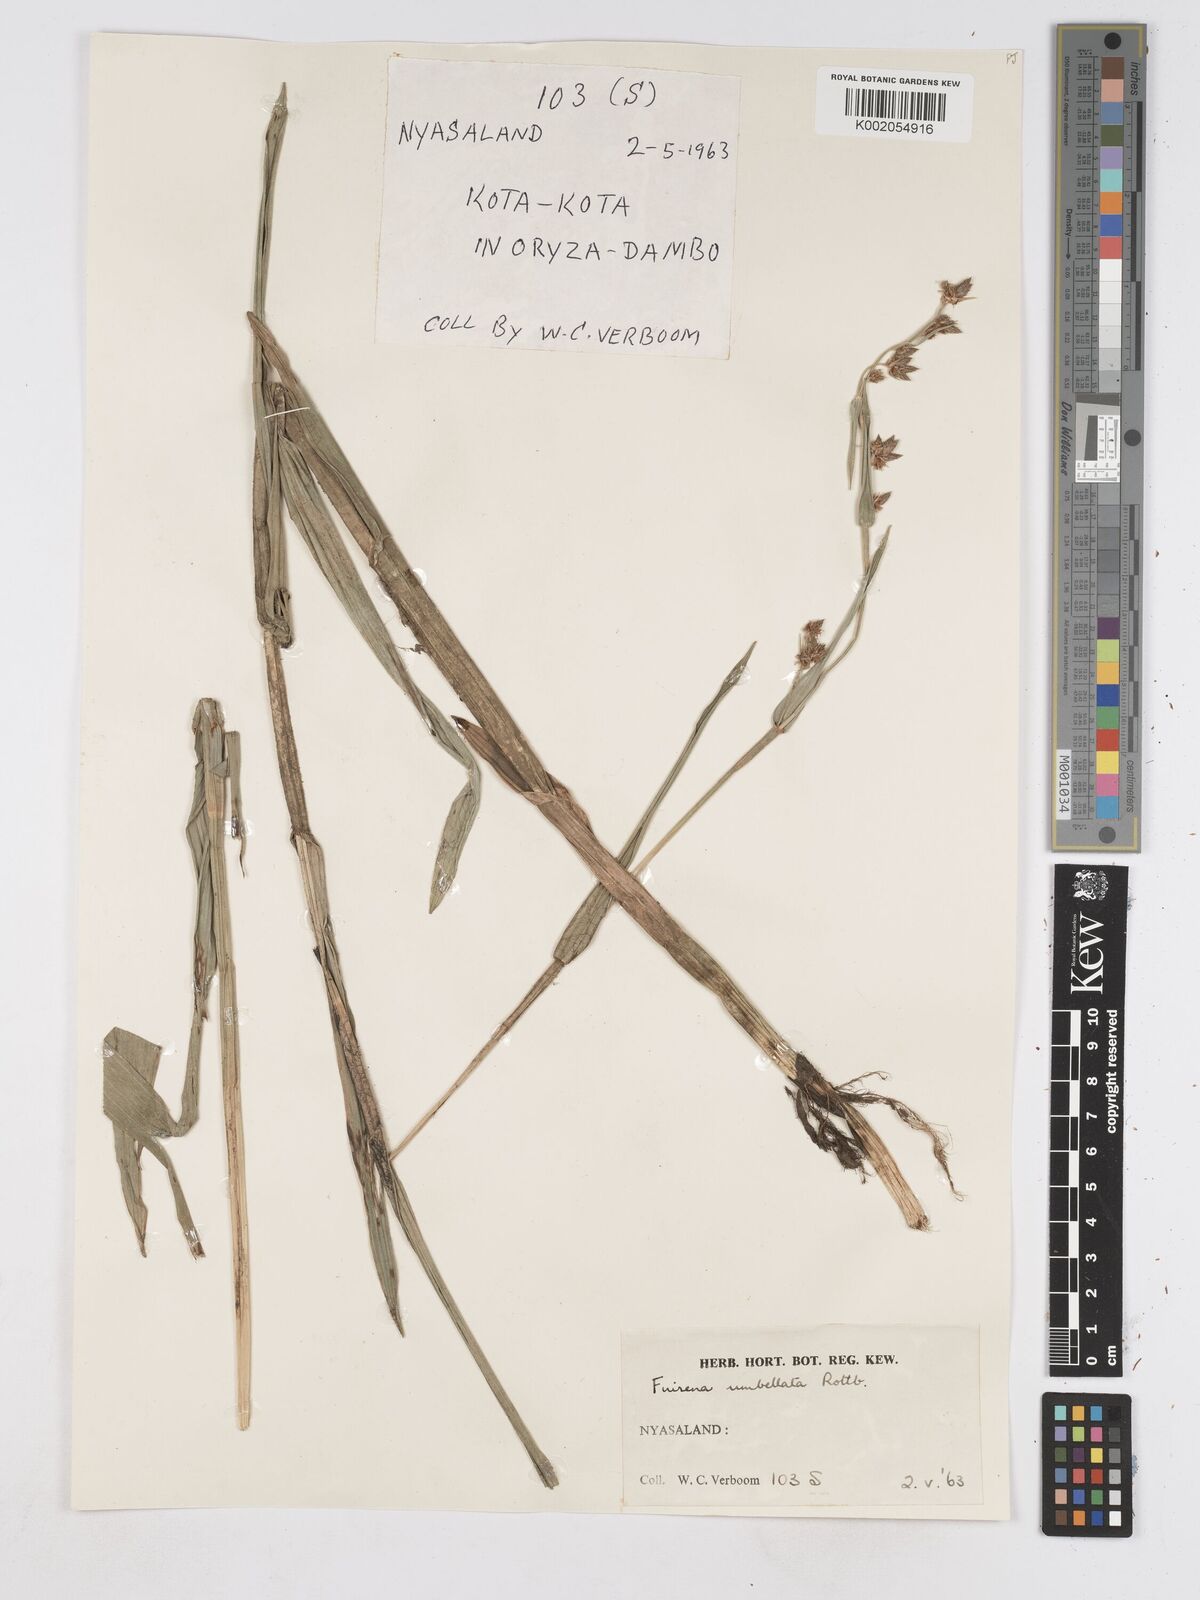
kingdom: Plantae
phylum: Tracheophyta
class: Liliopsida
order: Poales
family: Cyperaceae
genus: Fuirena
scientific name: Fuirena umbellata
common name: Yefen
